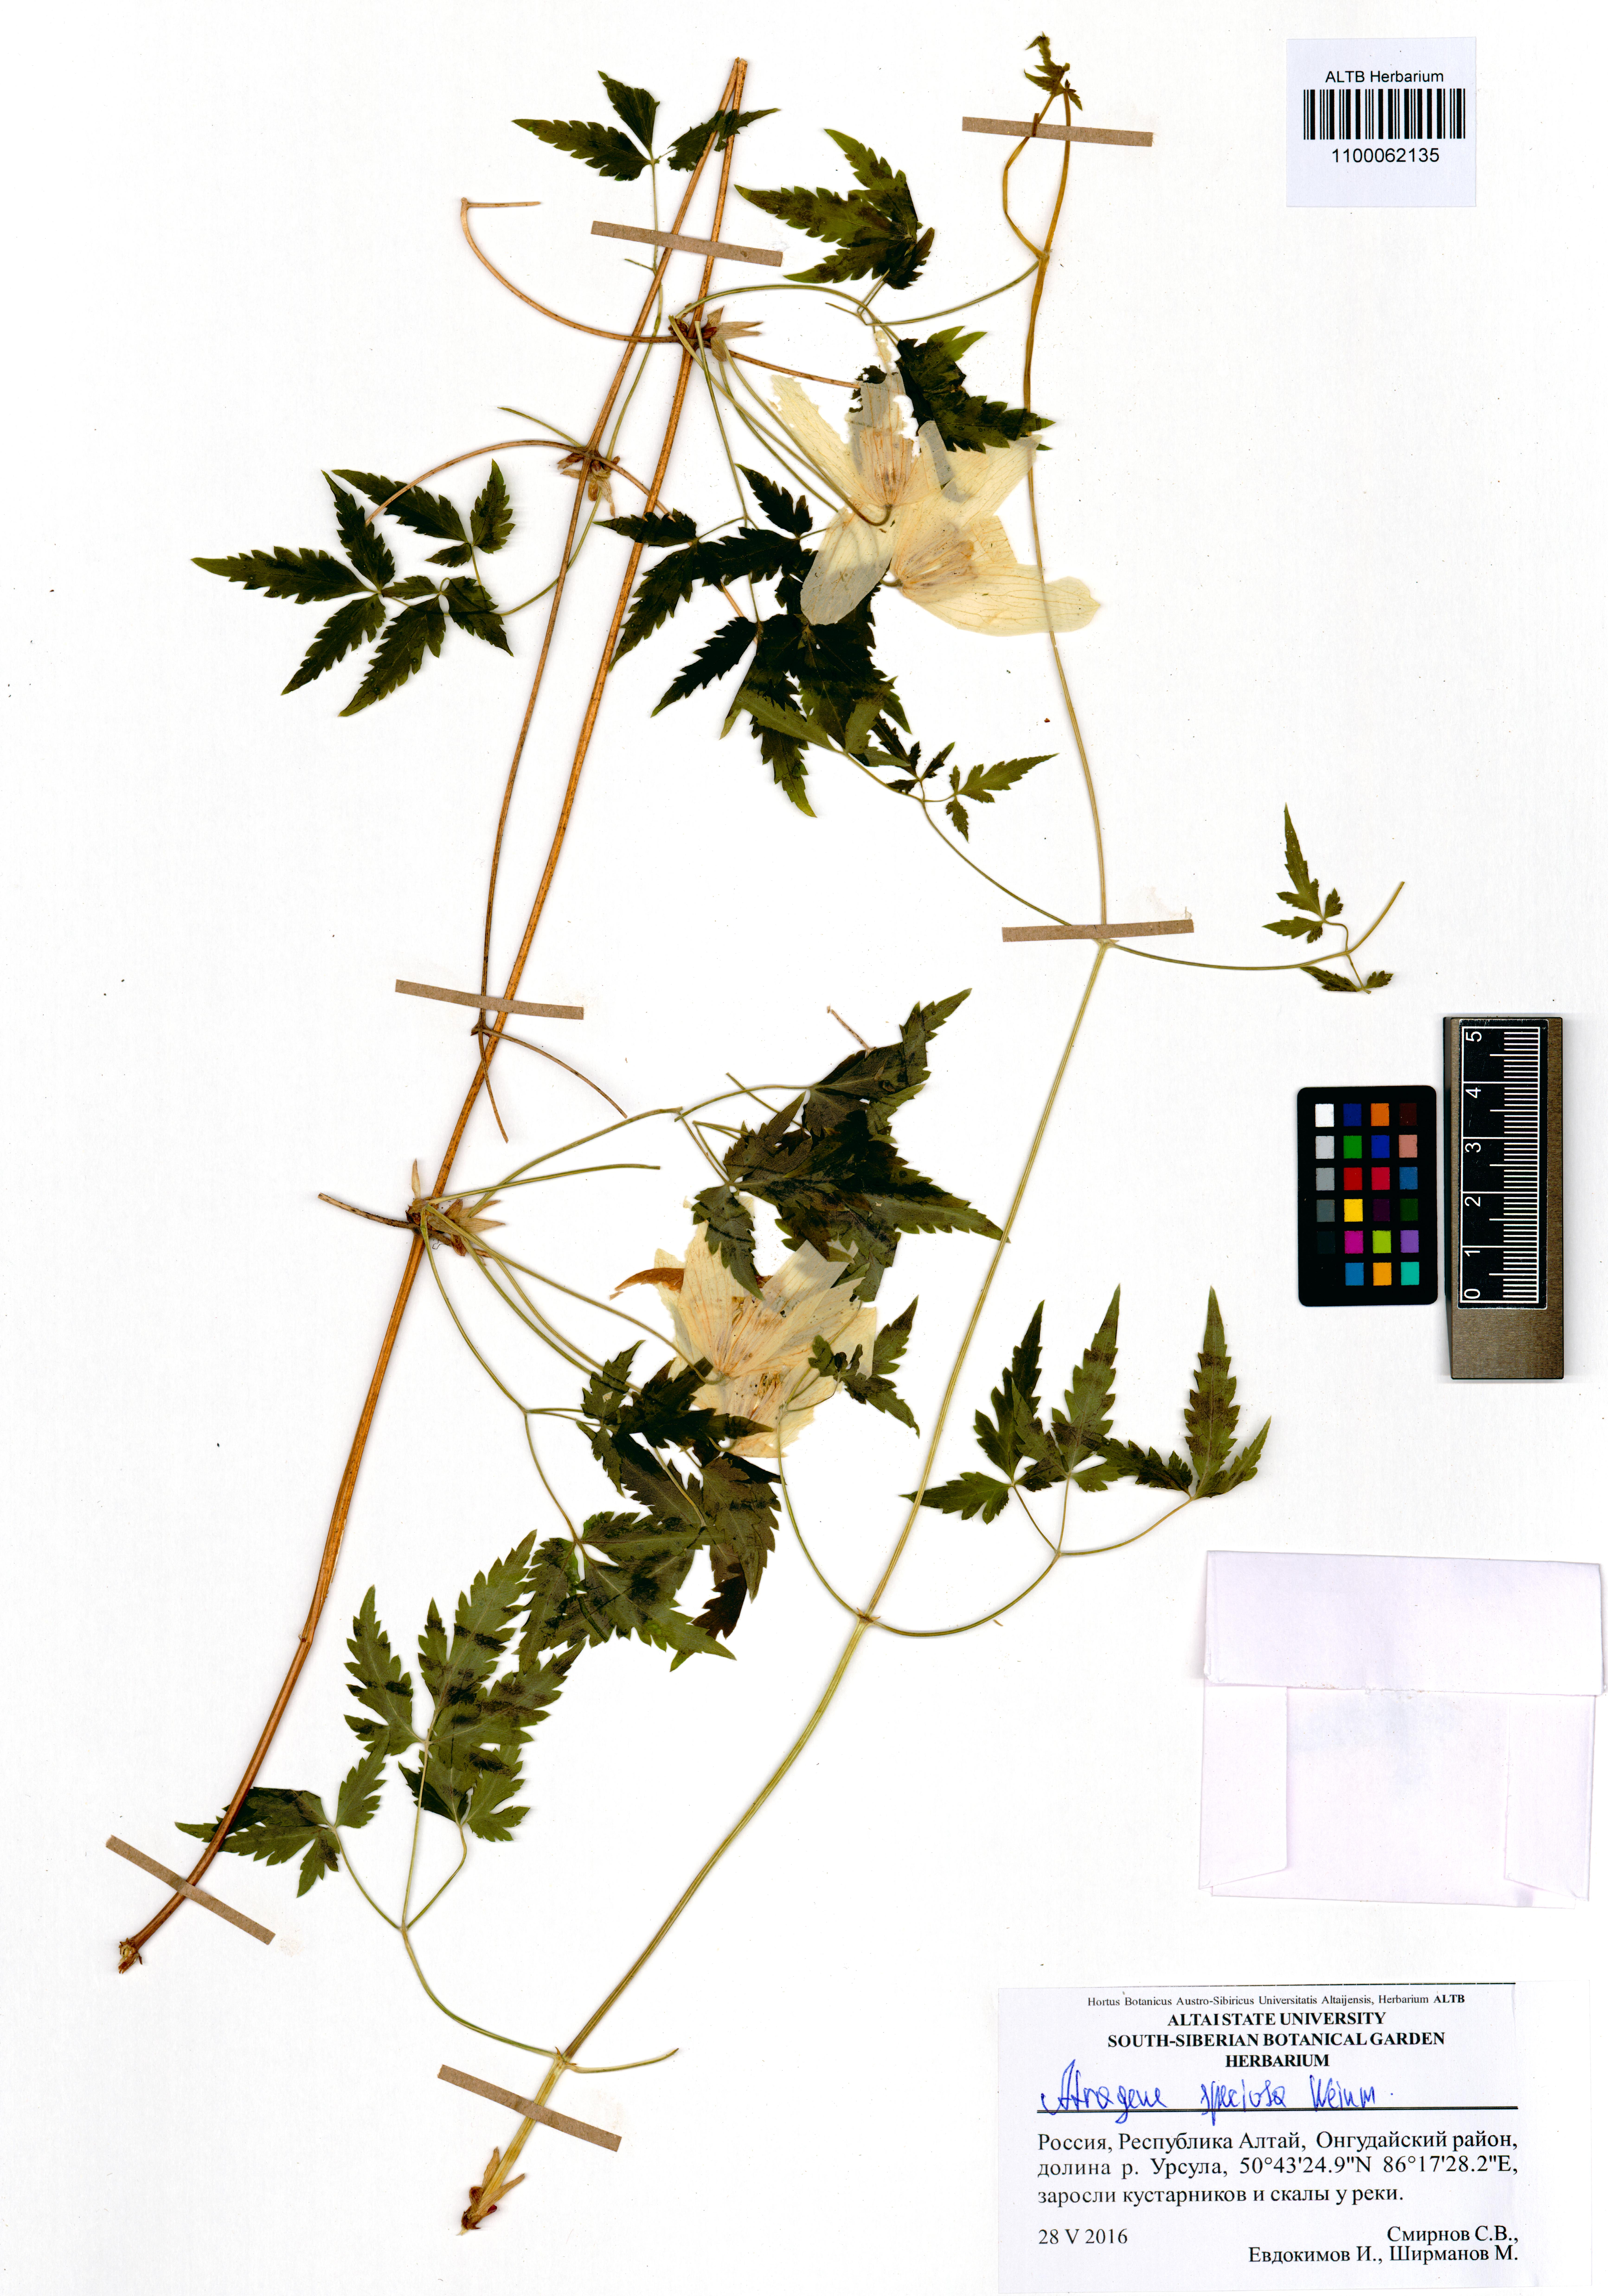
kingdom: Plantae
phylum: Tracheophyta
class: Magnoliopsida
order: Ranunculales
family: Ranunculaceae
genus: Clematis
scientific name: Clematis sibirica
